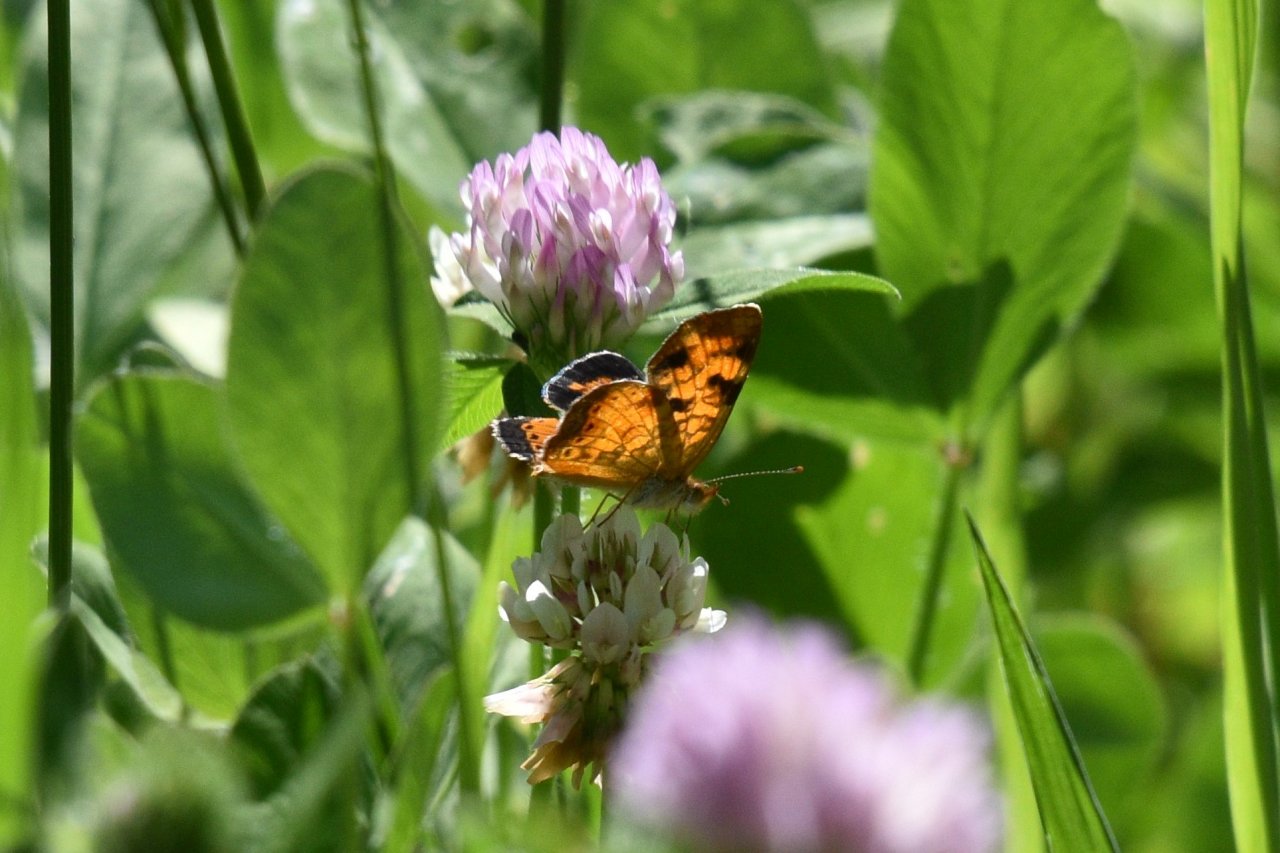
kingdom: Animalia
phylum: Arthropoda
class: Insecta
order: Lepidoptera
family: Nymphalidae
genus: Phyciodes
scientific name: Phyciodes tharos
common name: Northern Crescent
